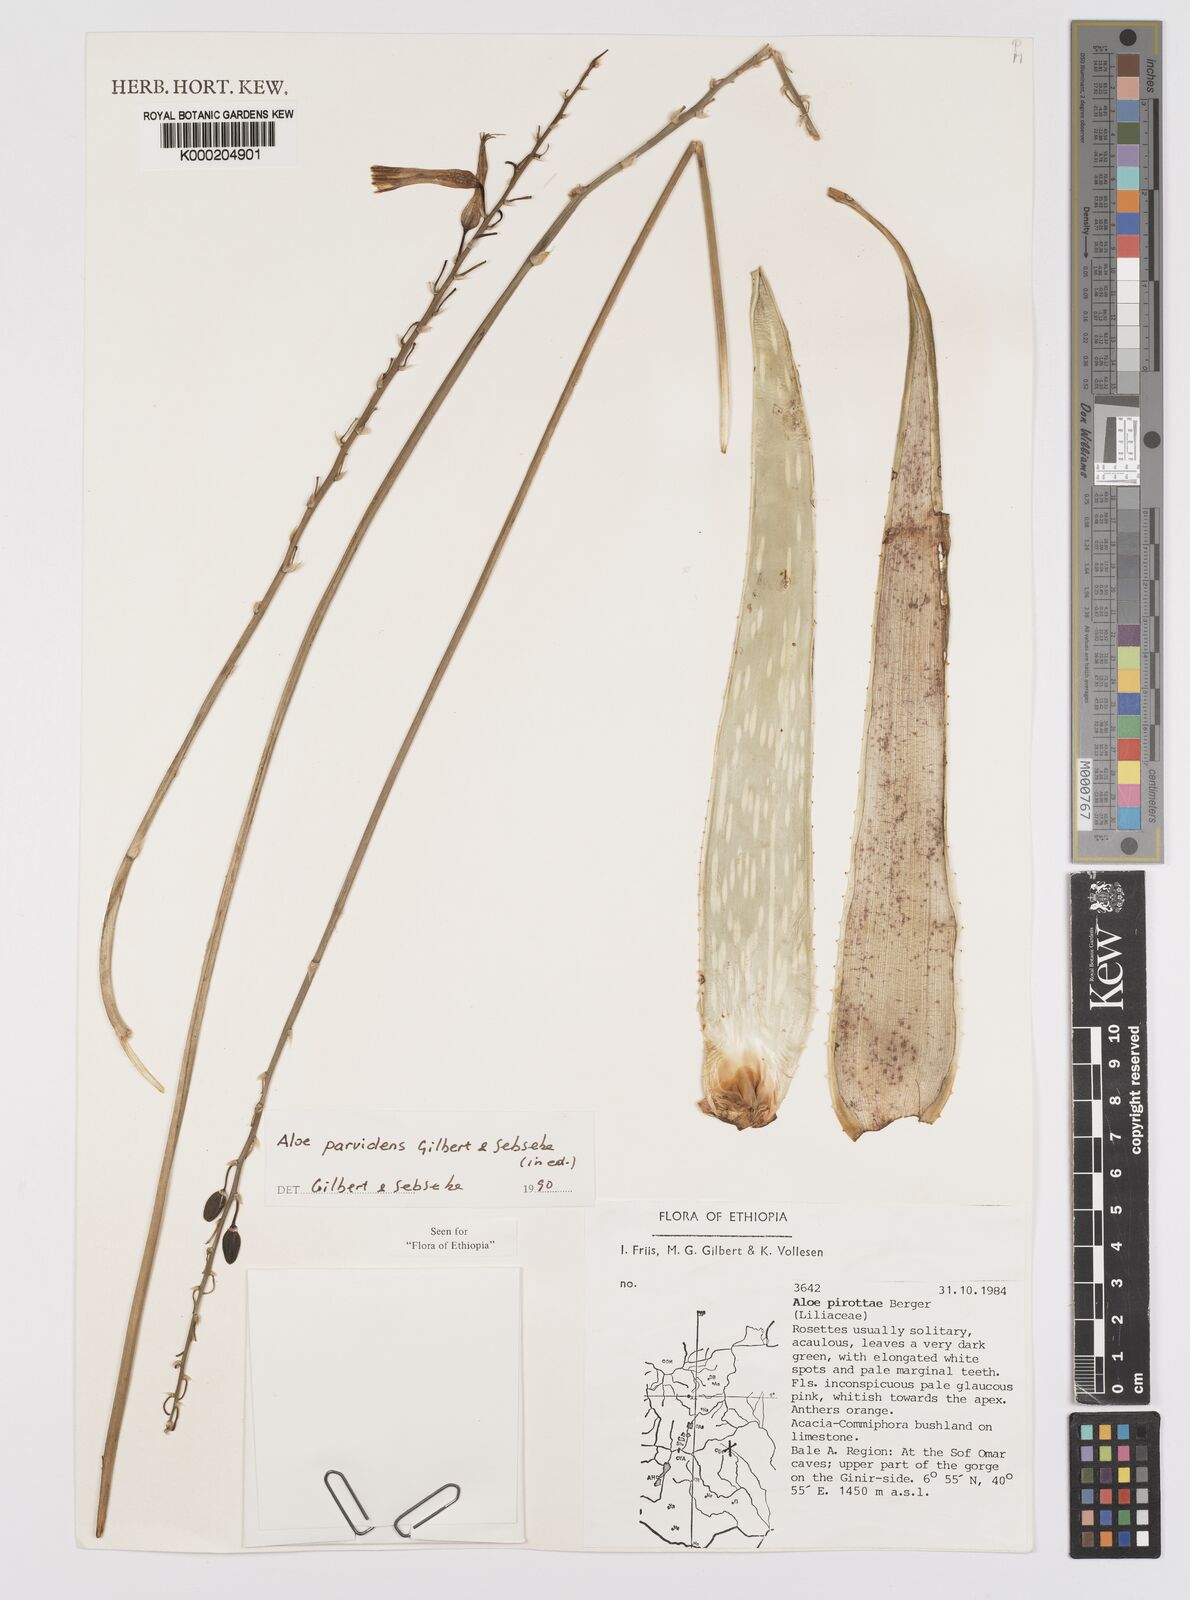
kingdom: Plantae
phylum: Tracheophyta
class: Liliopsida
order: Asparagales
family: Asphodelaceae
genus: Aloe
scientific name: Aloe parvidens
